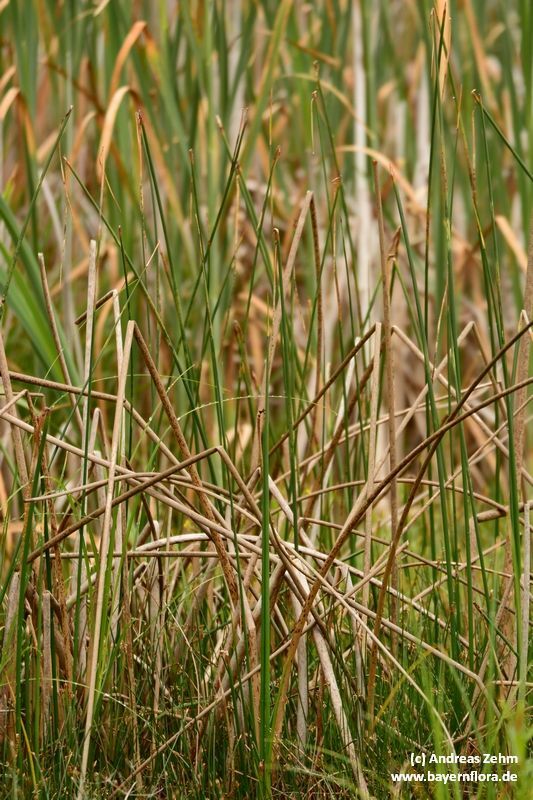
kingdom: Plantae
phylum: Tracheophyta
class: Liliopsida
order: Poales
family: Cyperaceae
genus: Schoenoplectus
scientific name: Schoenoplectus lacustris
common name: Common club-rush
